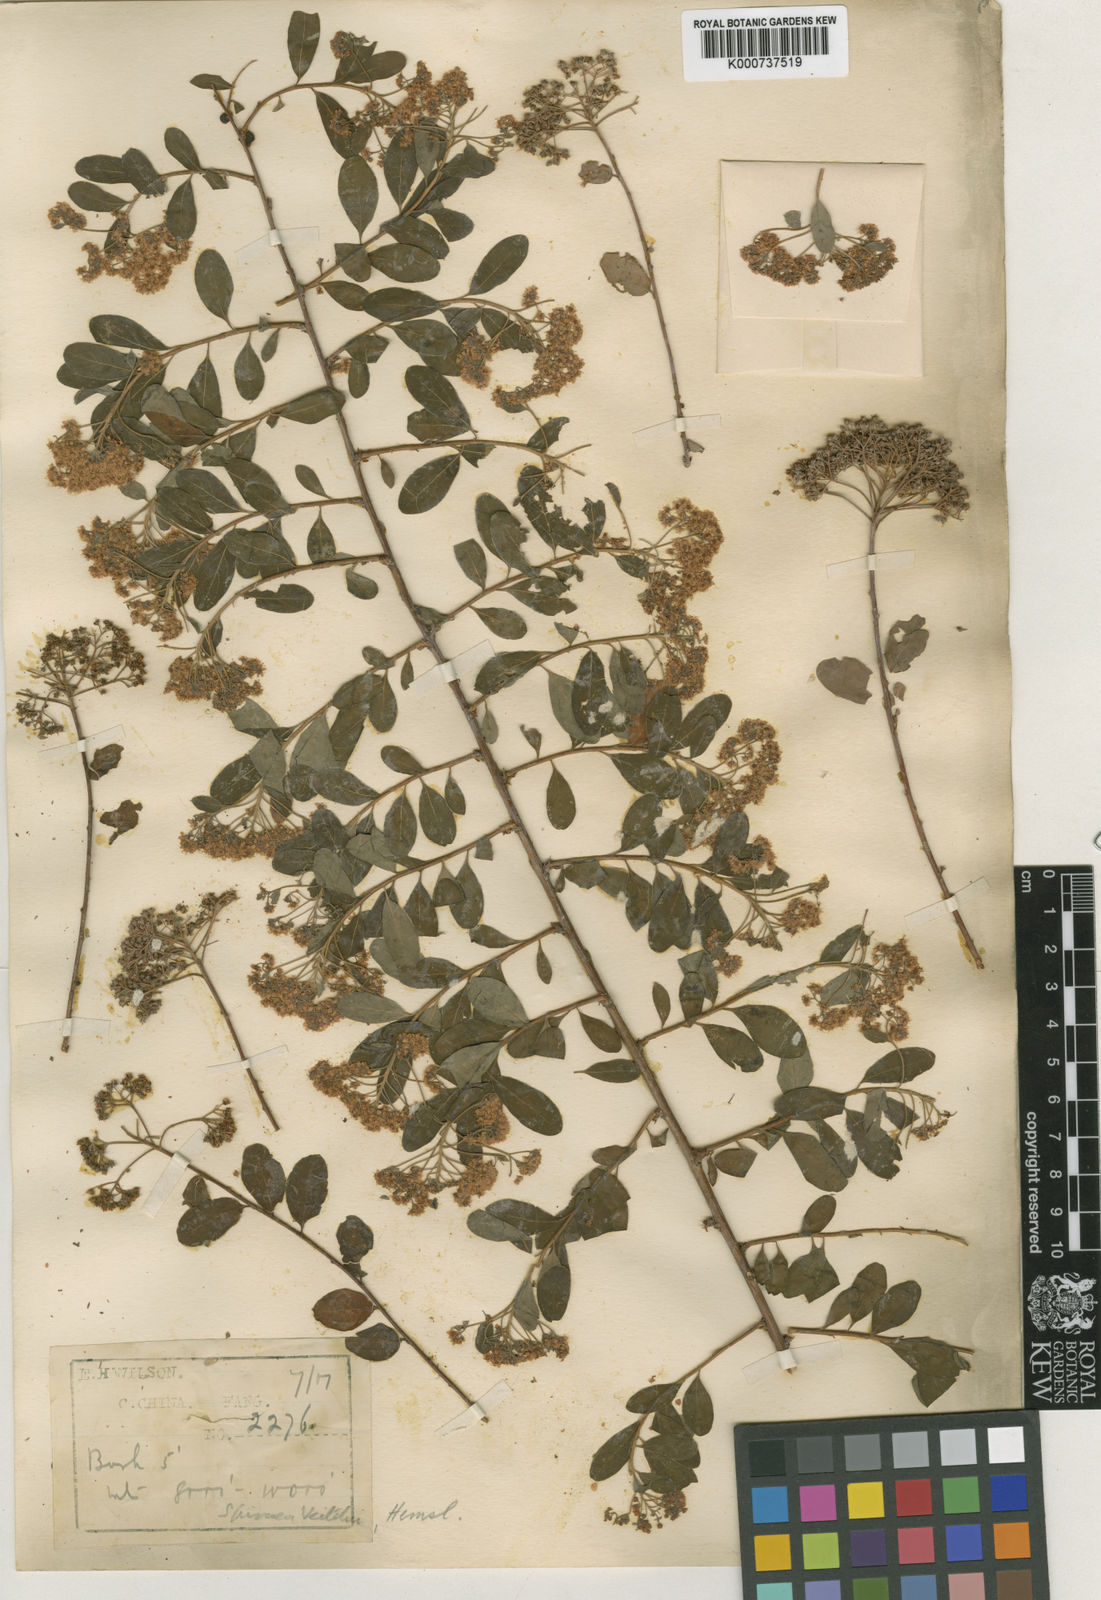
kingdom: Plantae
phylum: Tracheophyta
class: Magnoliopsida
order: Rosales
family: Rosaceae
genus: Spiraea
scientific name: Spiraea veitchii
